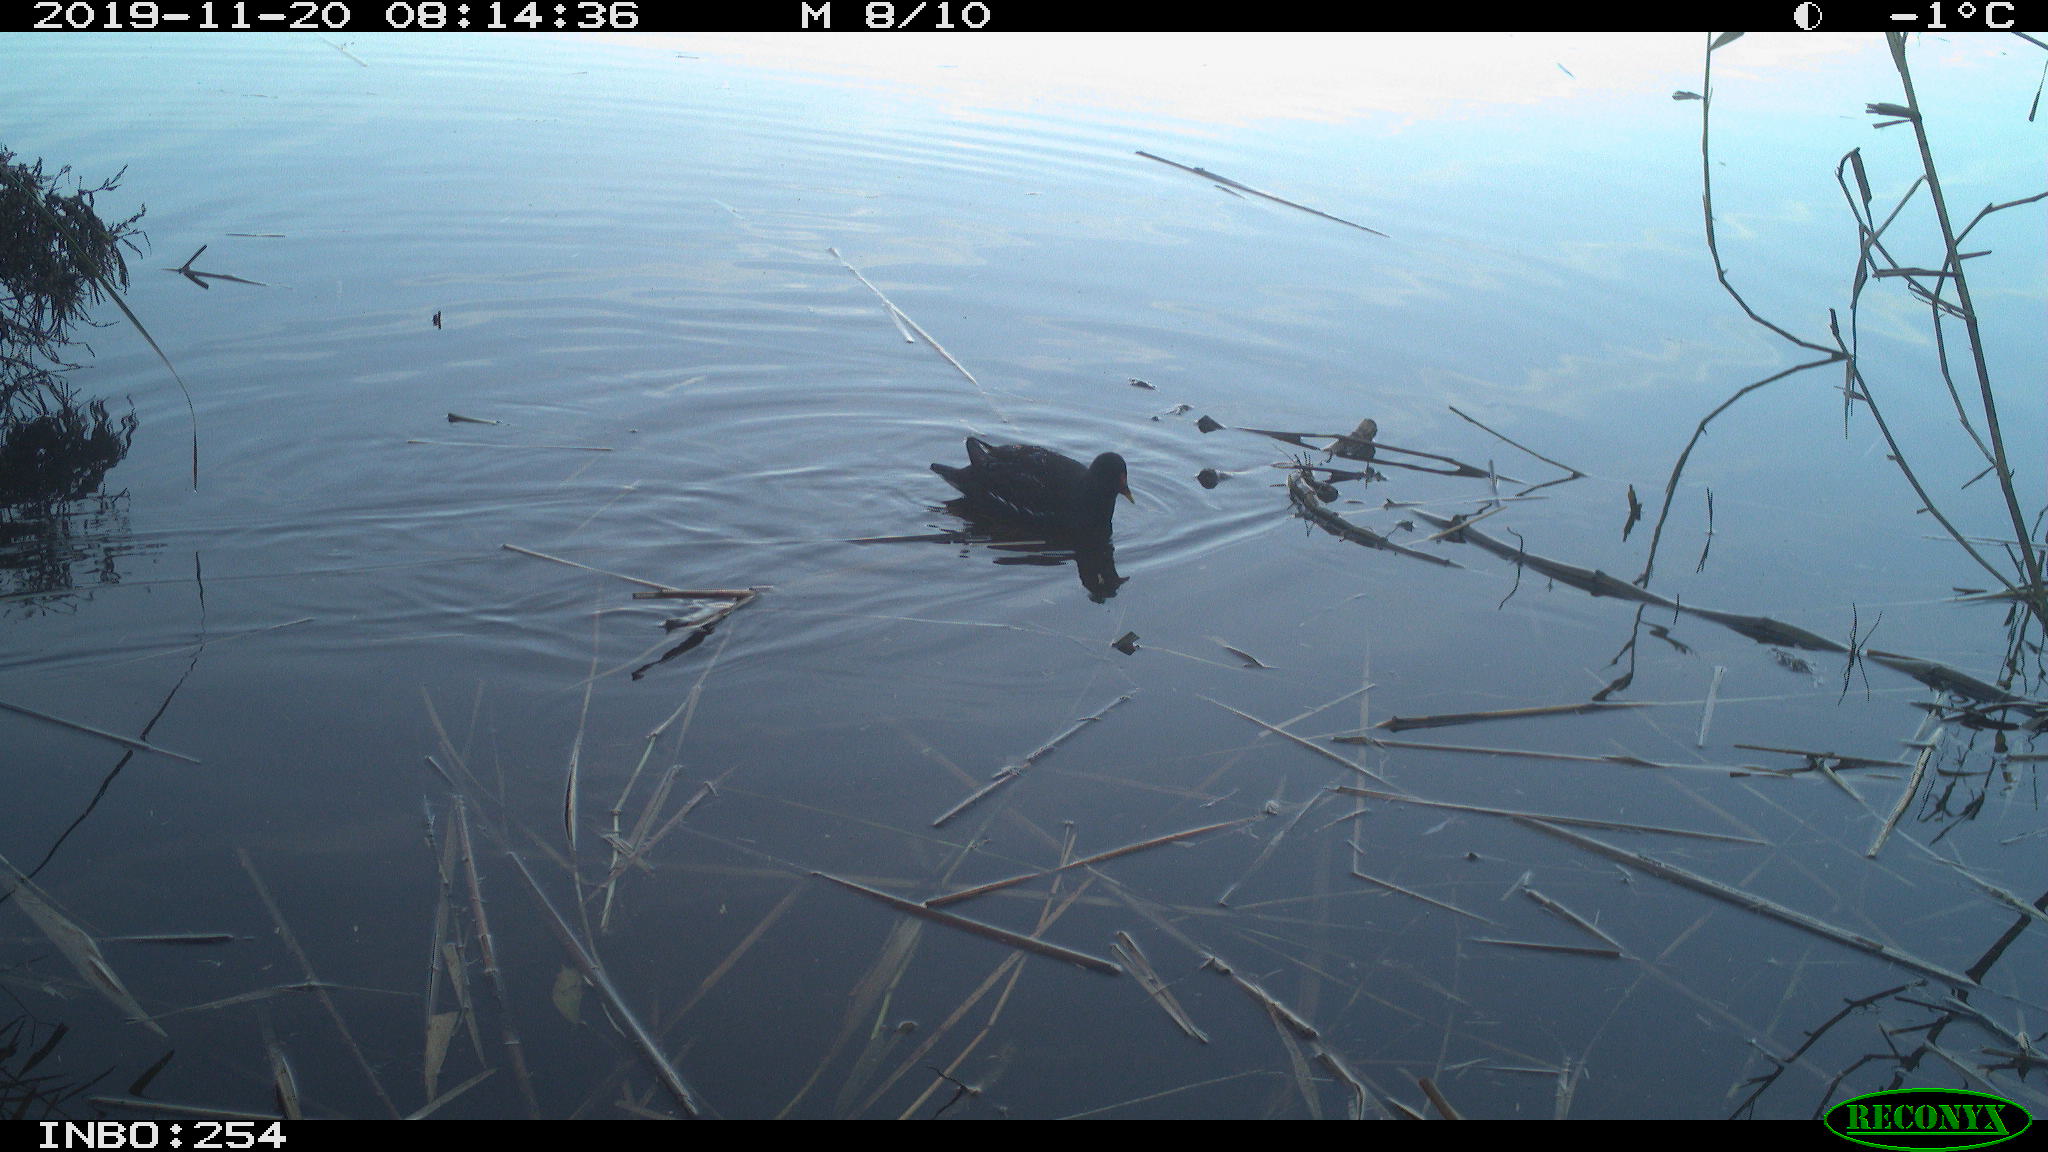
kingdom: Animalia
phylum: Chordata
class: Aves
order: Gruiformes
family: Rallidae
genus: Gallinula
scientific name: Gallinula chloropus
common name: Common moorhen
